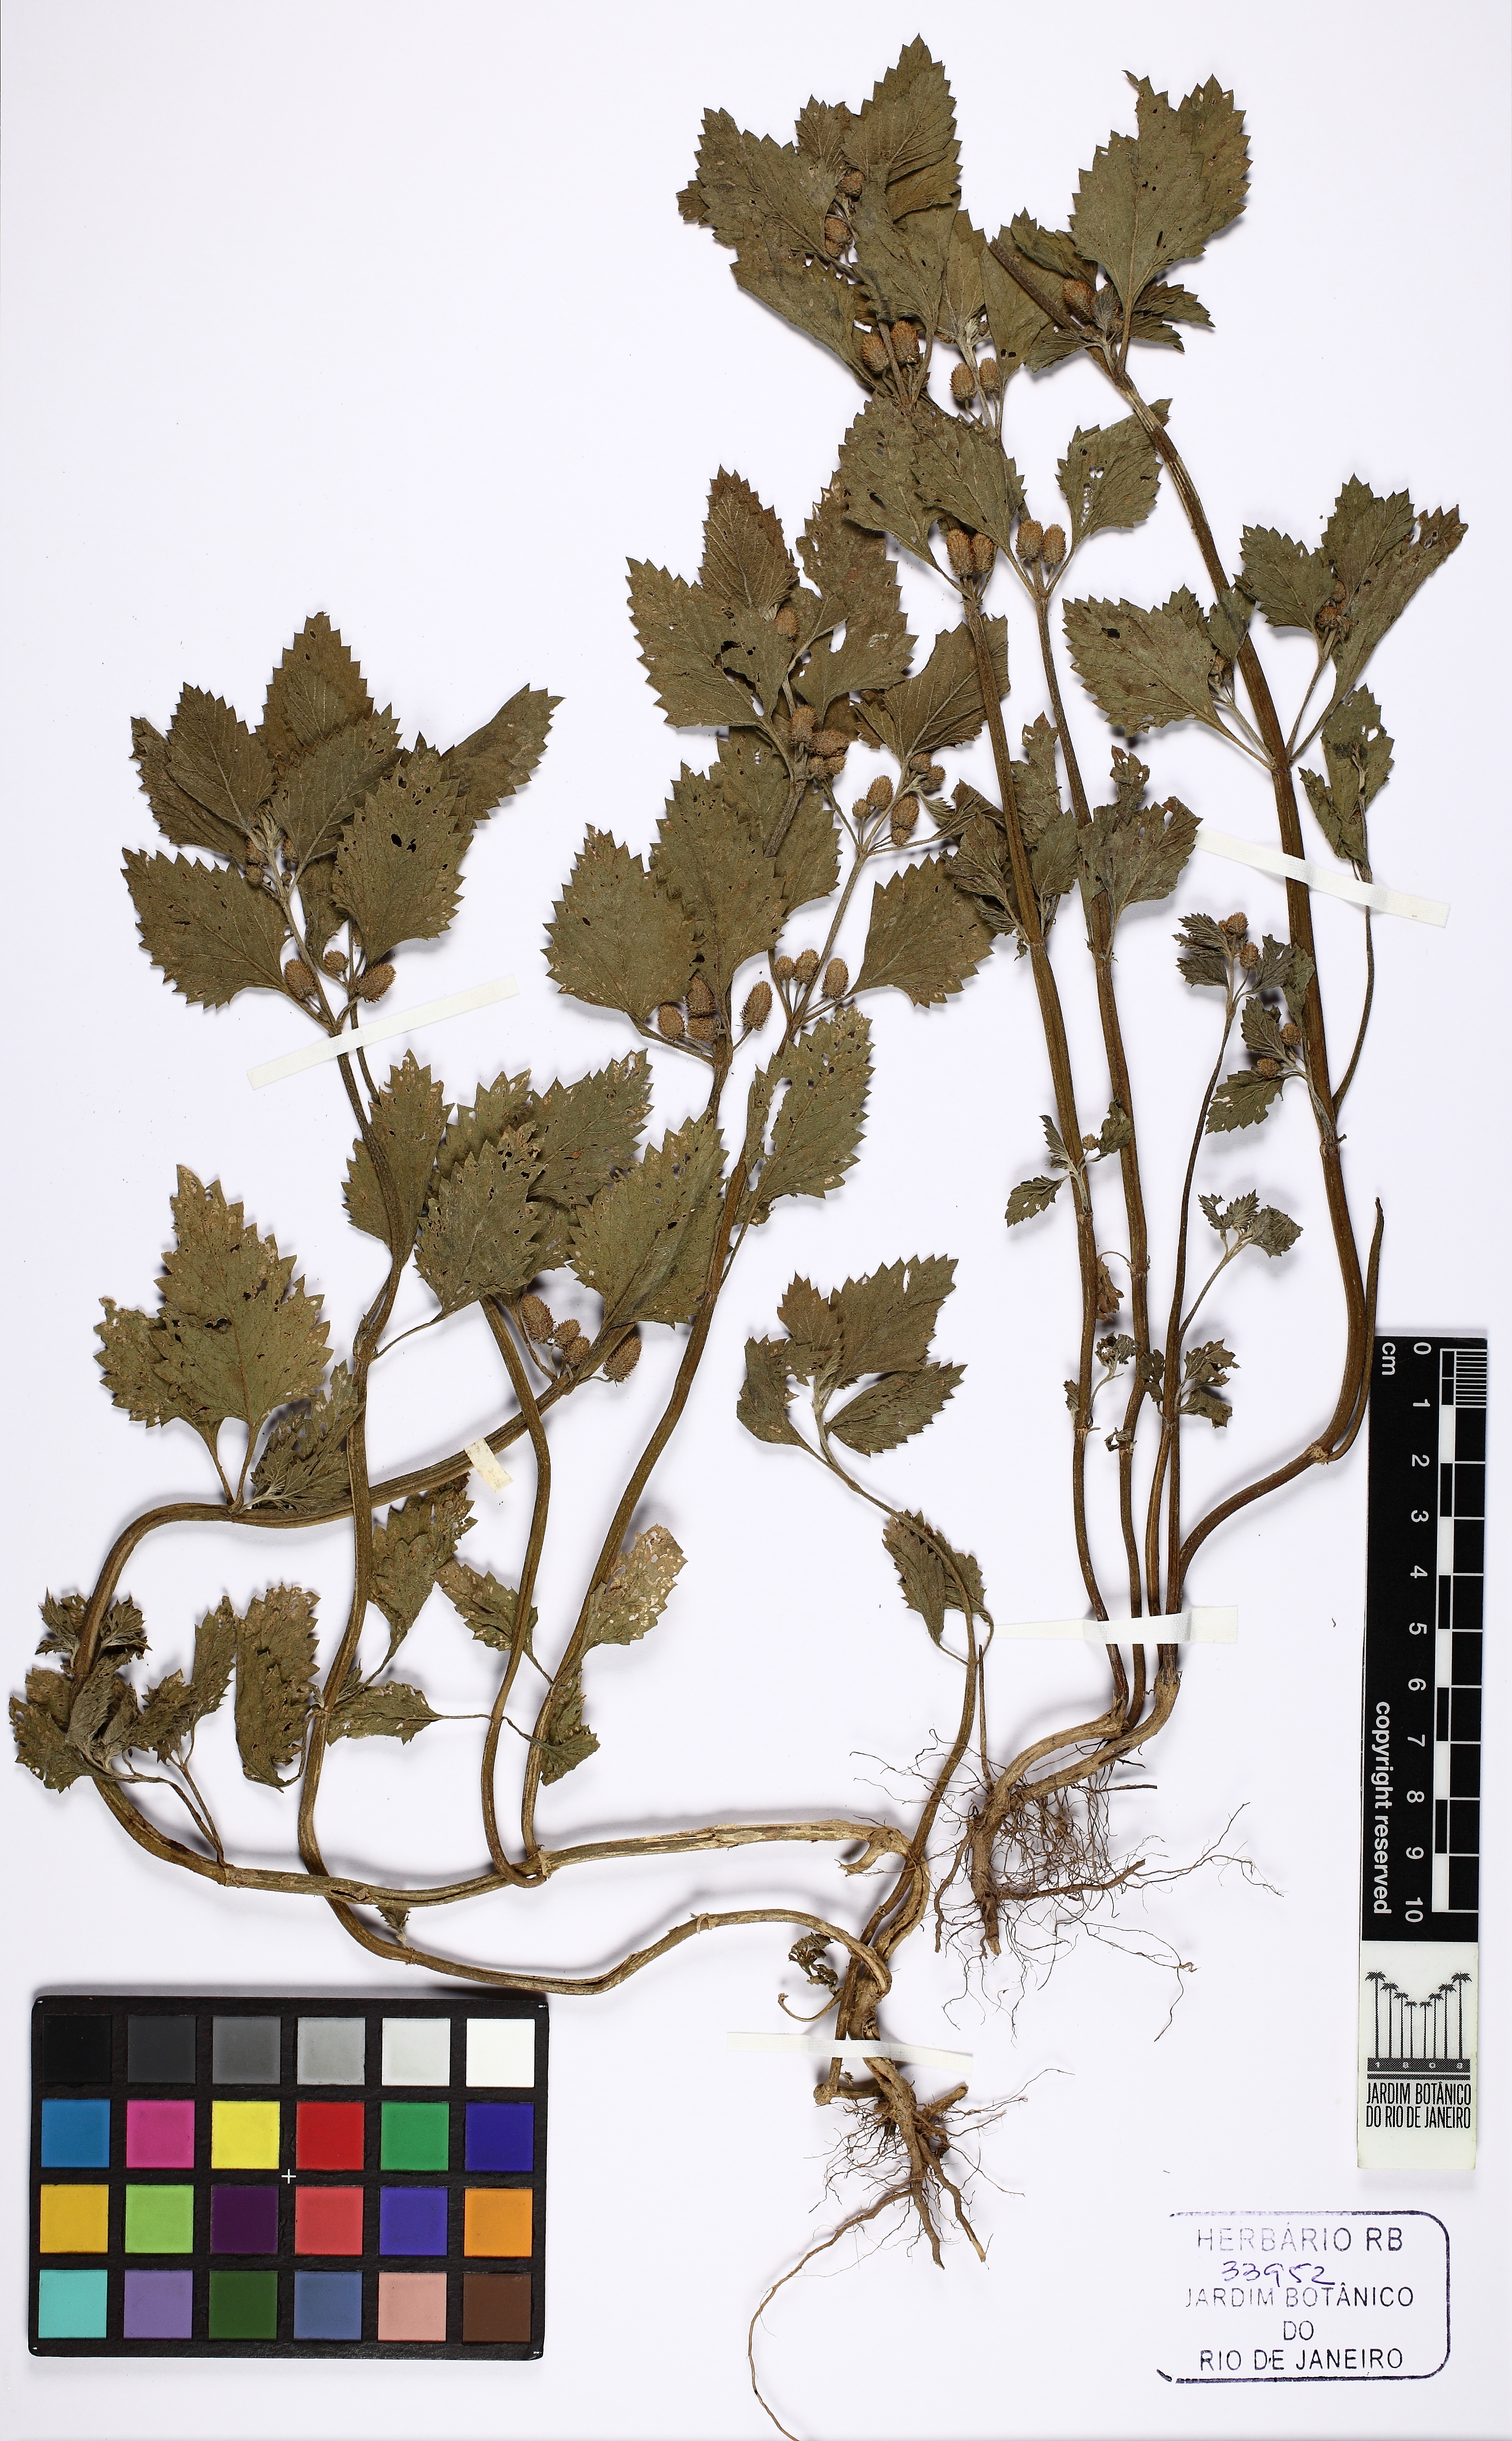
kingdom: Plantae
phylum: Tracheophyta
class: Magnoliopsida
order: Lamiales
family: Verbenaceae
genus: Phyla
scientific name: Phyla betulifolia
